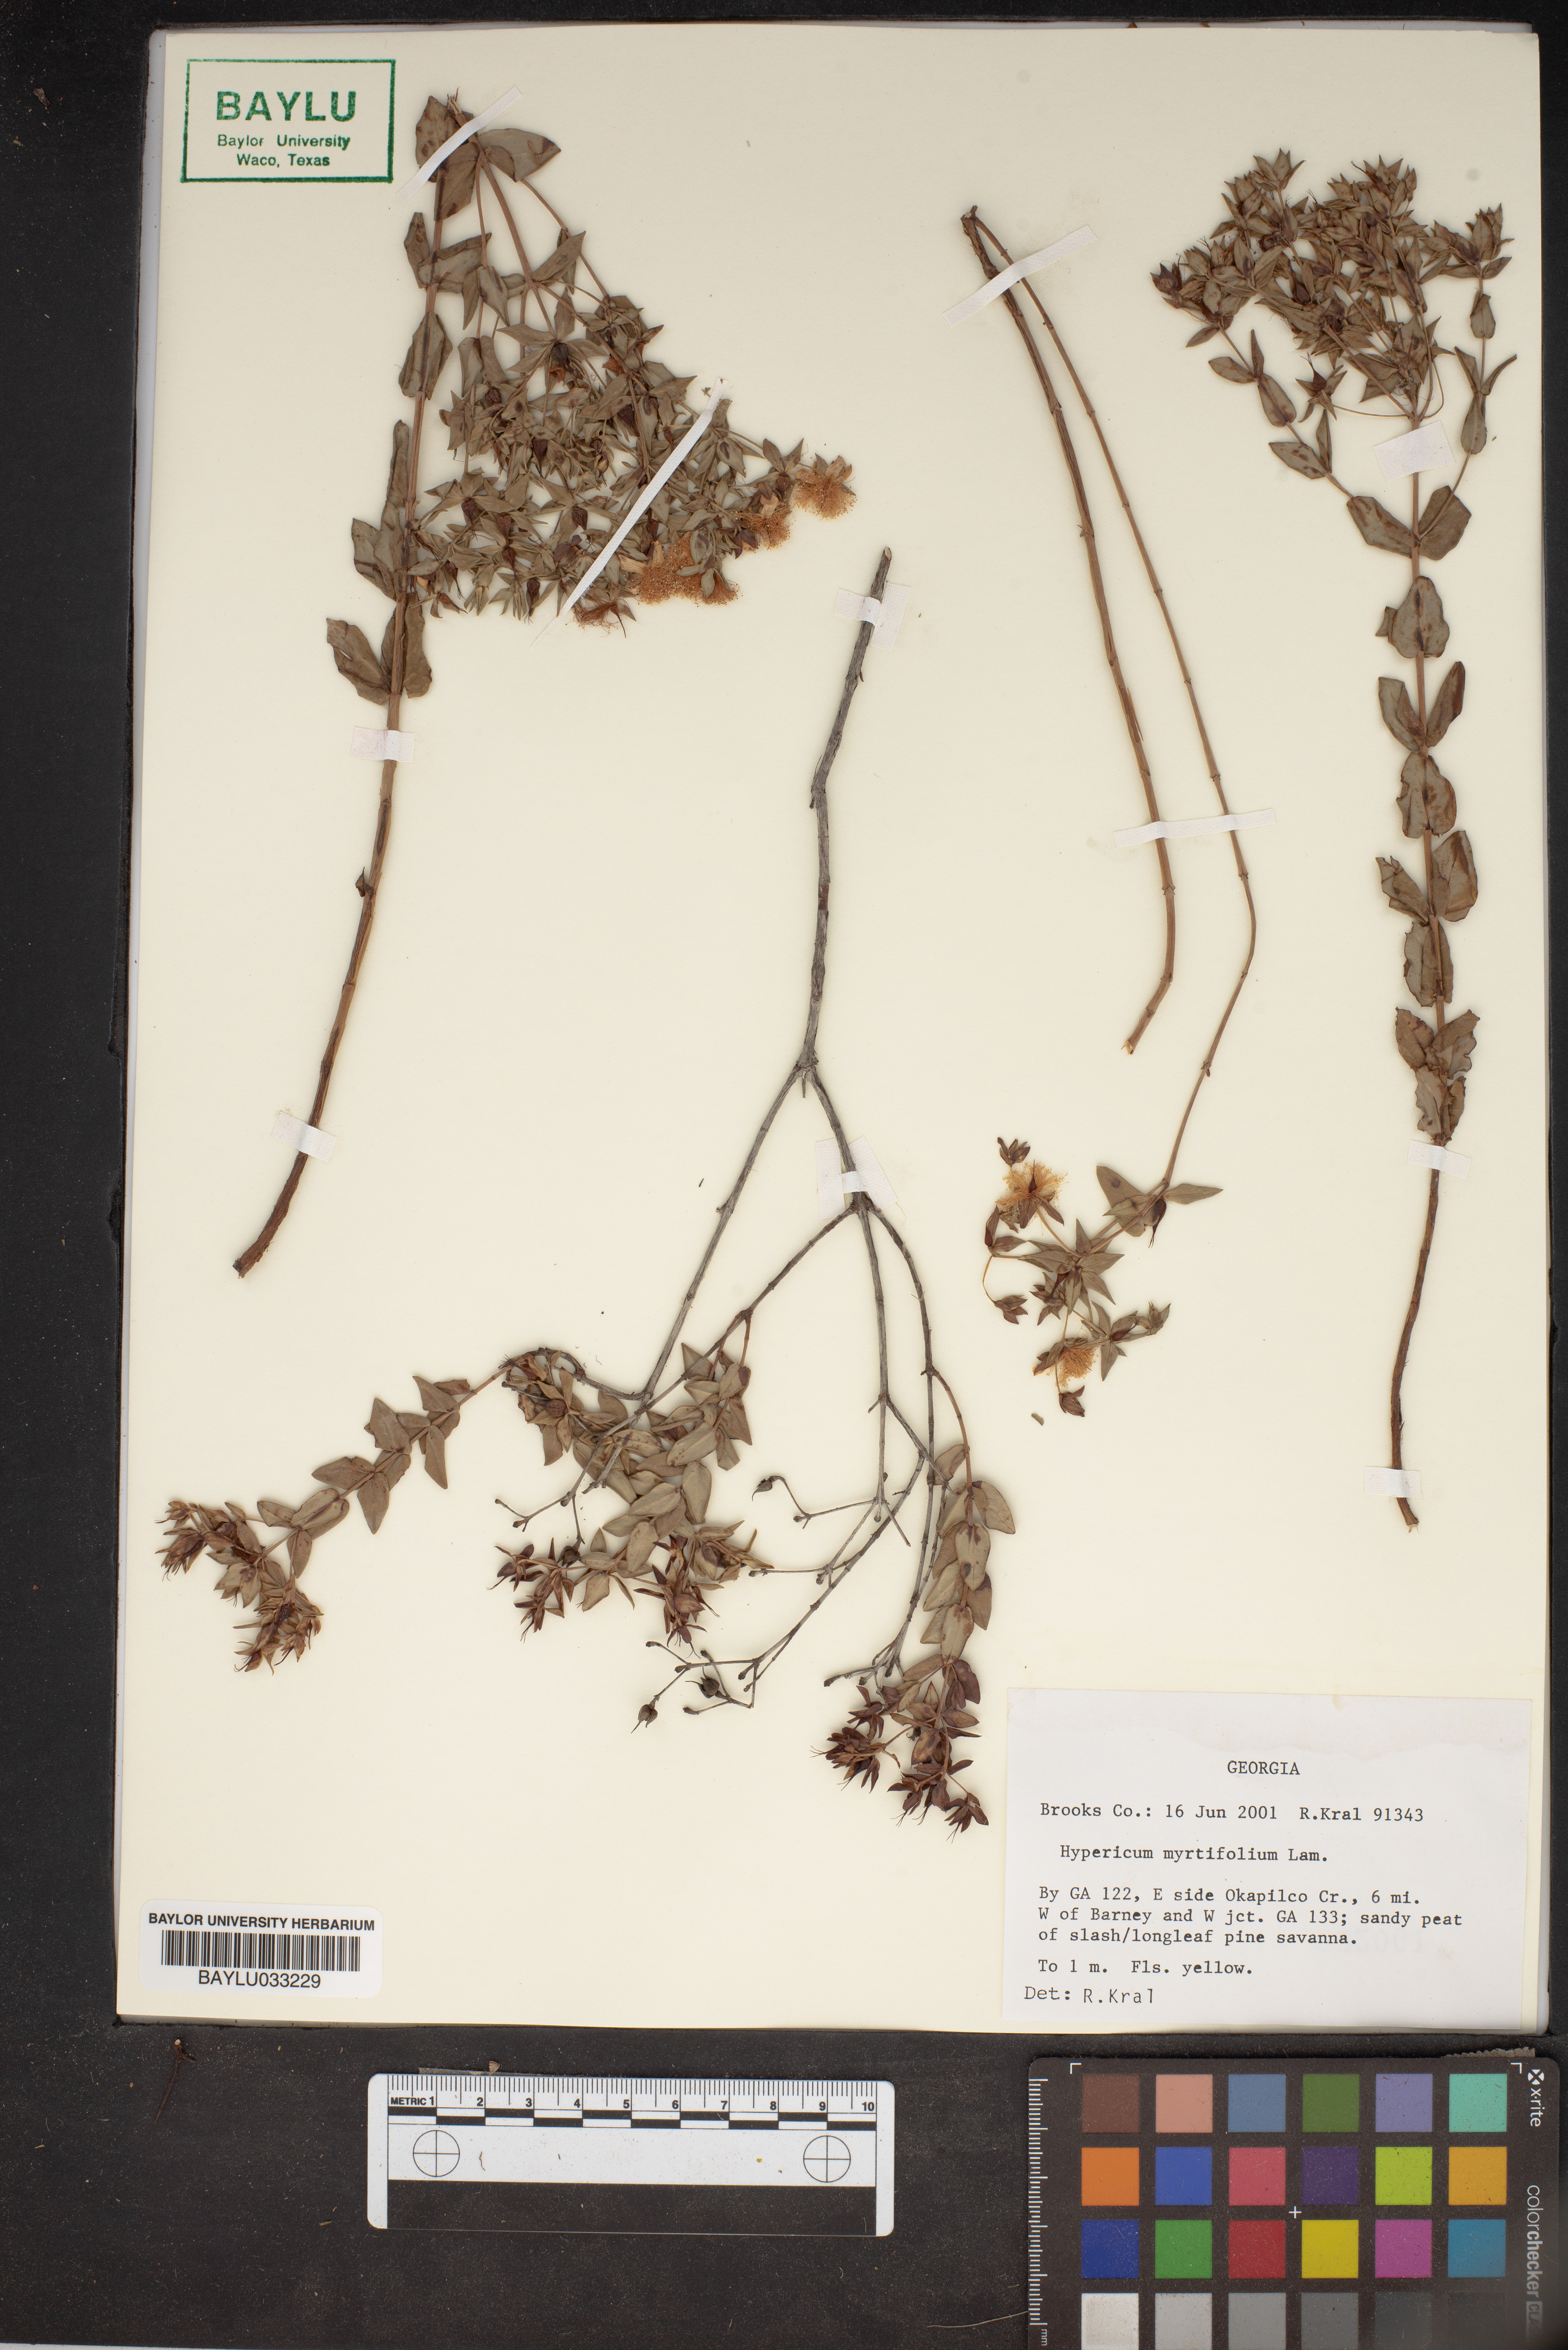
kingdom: Plantae
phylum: Tracheophyta
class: Magnoliopsida
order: Malpighiales
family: Hypericaceae
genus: Hypericum
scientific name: Hypericum myrtifolium
